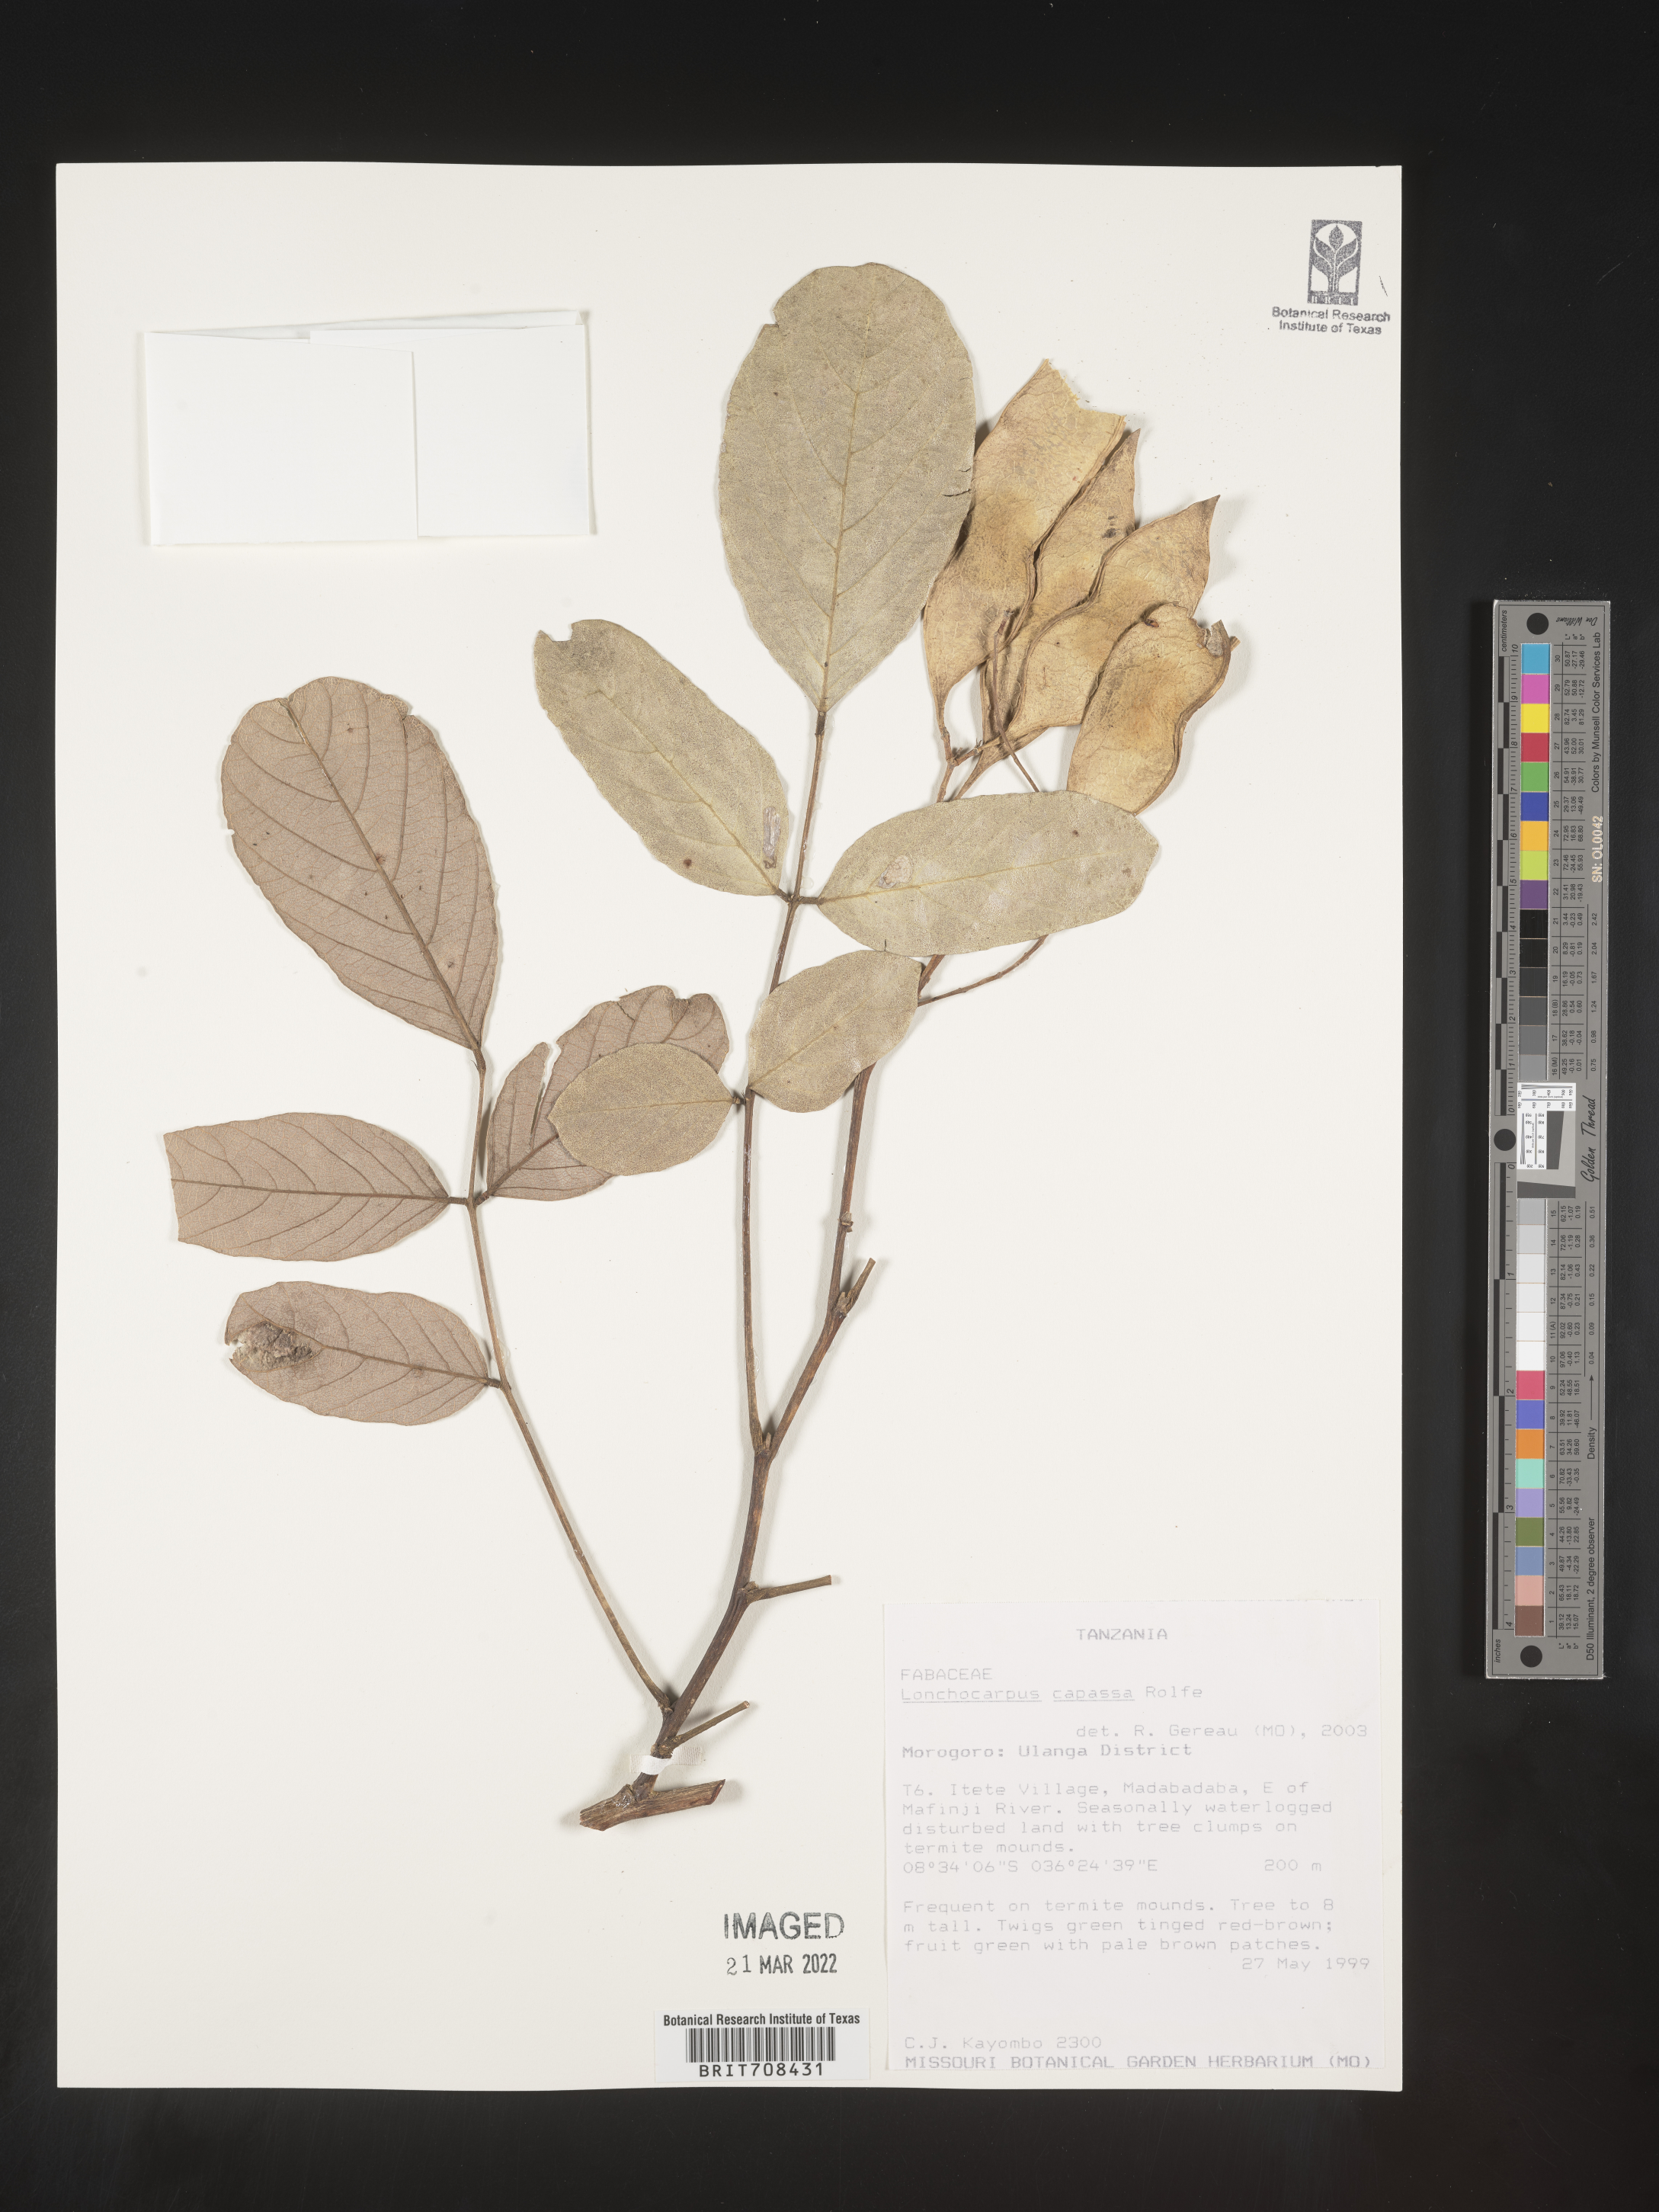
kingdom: Plantae
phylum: Tracheophyta
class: Magnoliopsida
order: Fabales
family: Fabaceae
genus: Lonchocarpus
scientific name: Lonchocarpus
